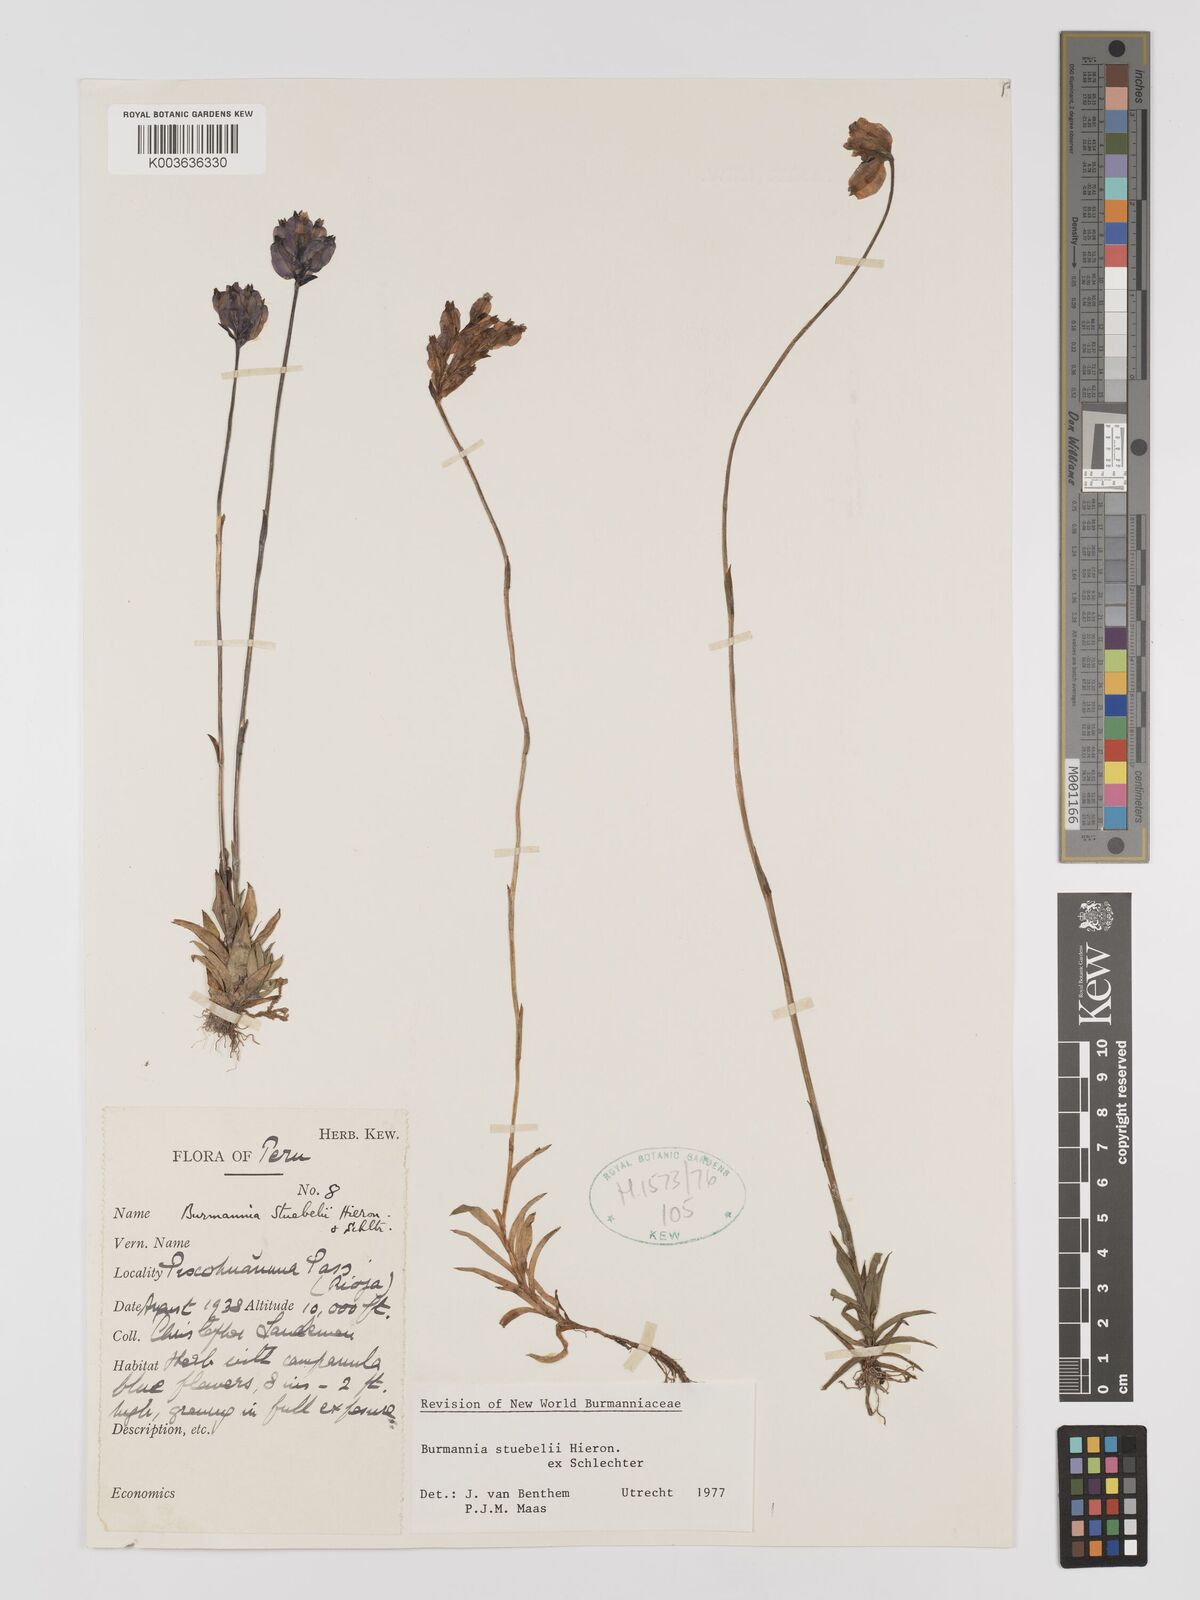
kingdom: Plantae
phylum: Tracheophyta
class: Liliopsida
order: Dioscoreales
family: Burmanniaceae
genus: Burmannia
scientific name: Burmannia stuebelii
